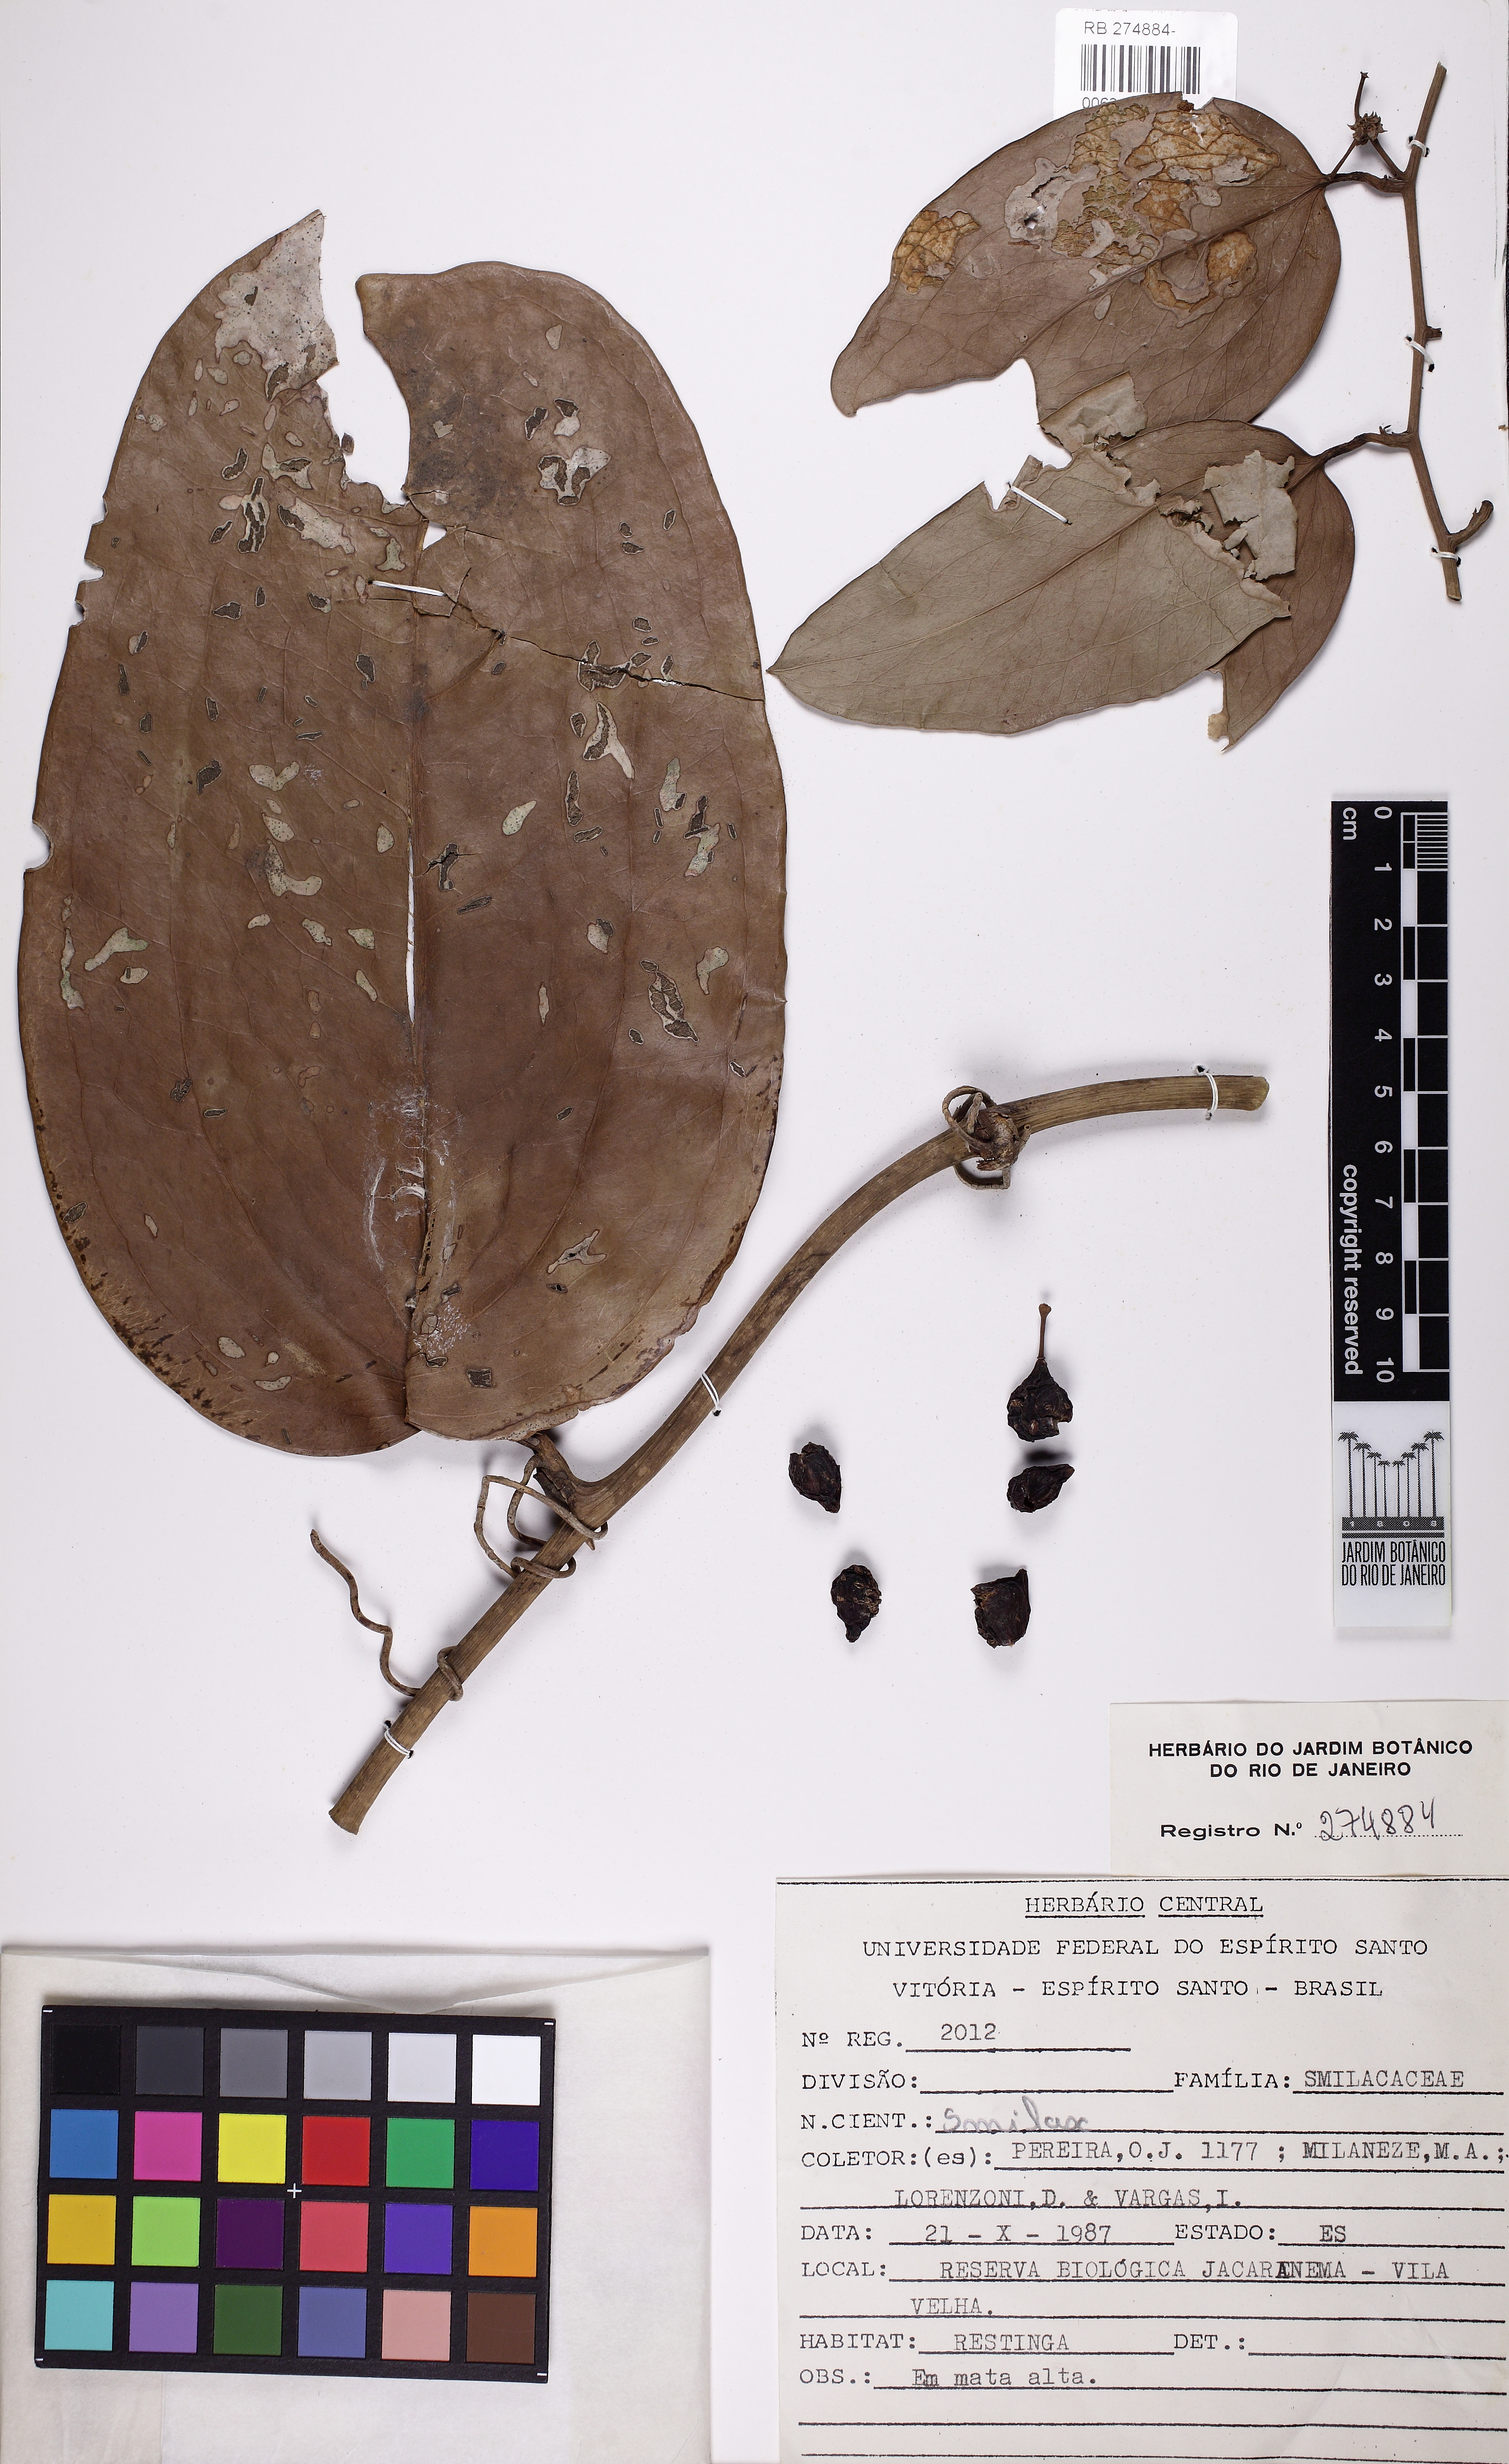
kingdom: Plantae
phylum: Tracheophyta
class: Liliopsida
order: Liliales
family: Smilacaceae
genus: Smilax
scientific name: Smilax
